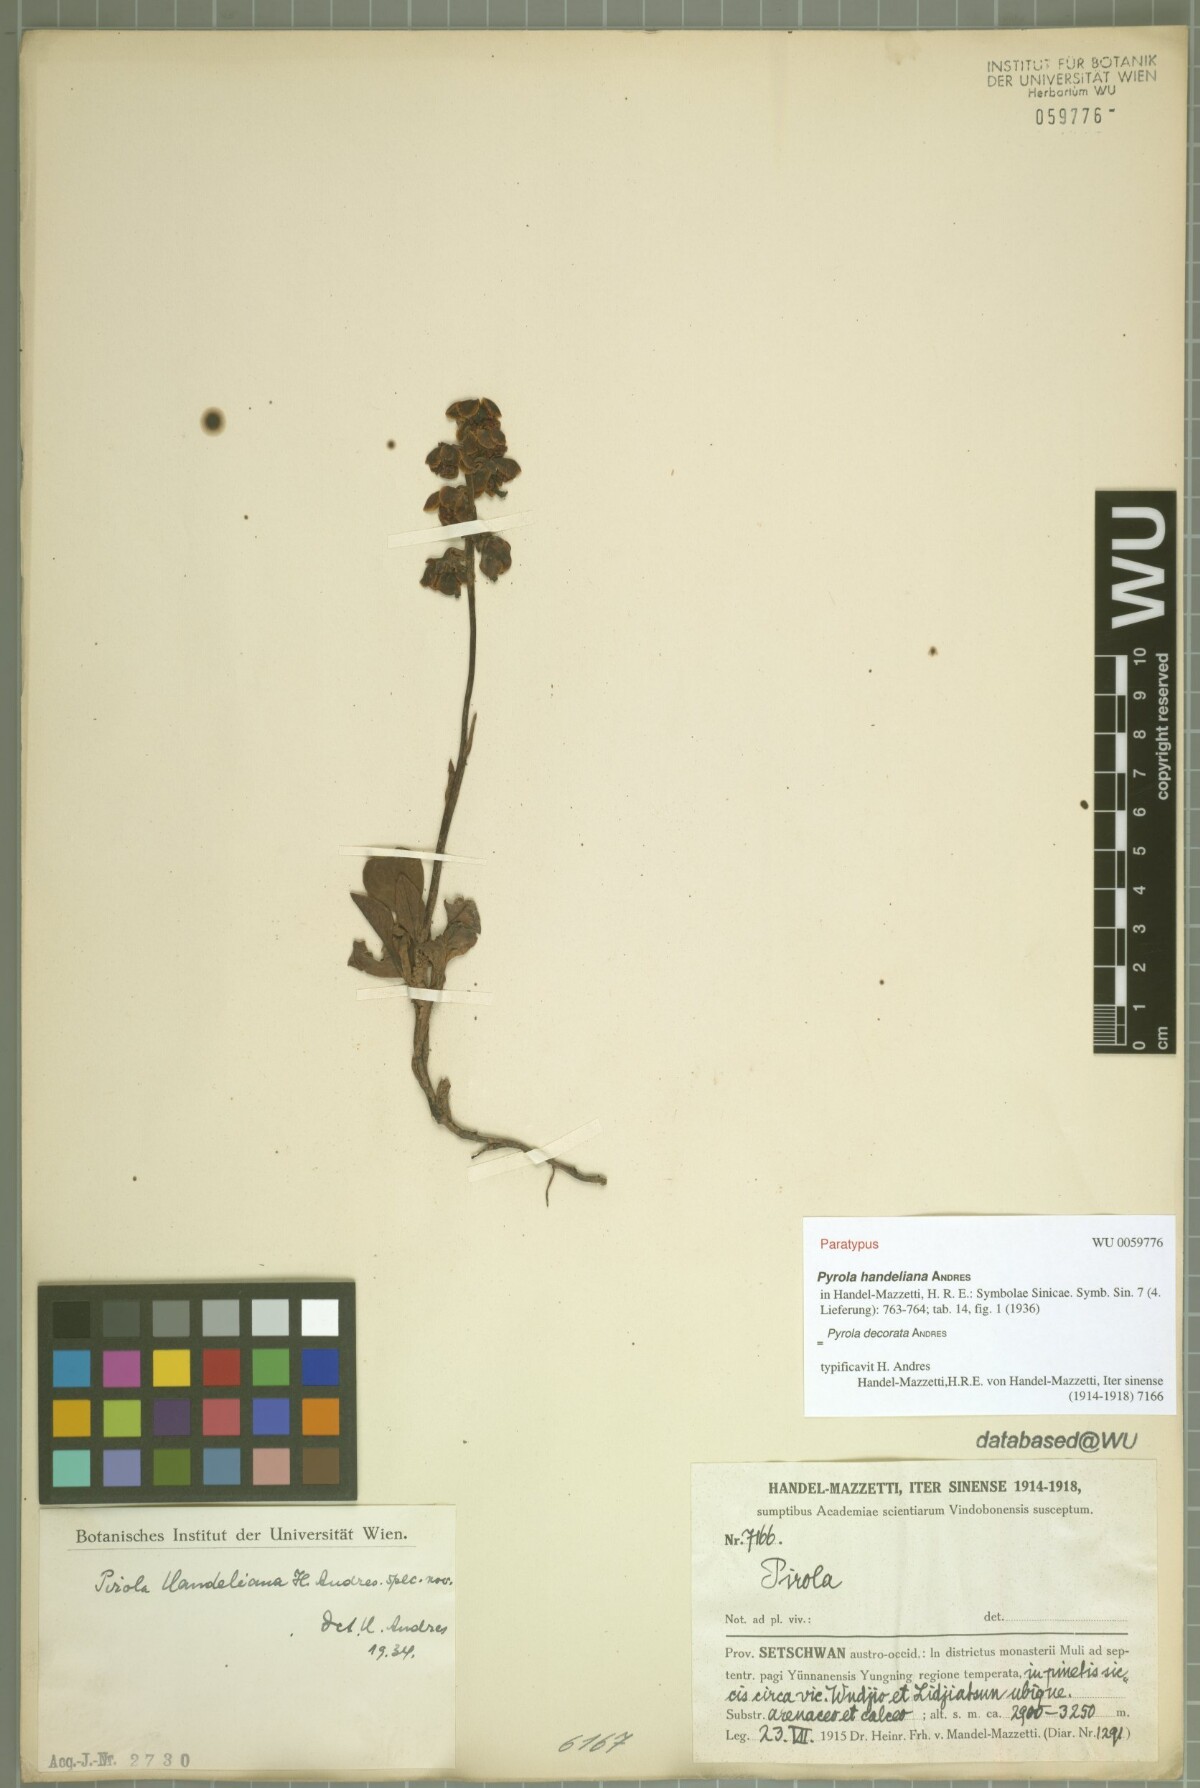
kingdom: Plantae
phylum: Tracheophyta
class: Magnoliopsida
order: Ericales
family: Ericaceae
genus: Pyrola
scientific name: Pyrola decorata
